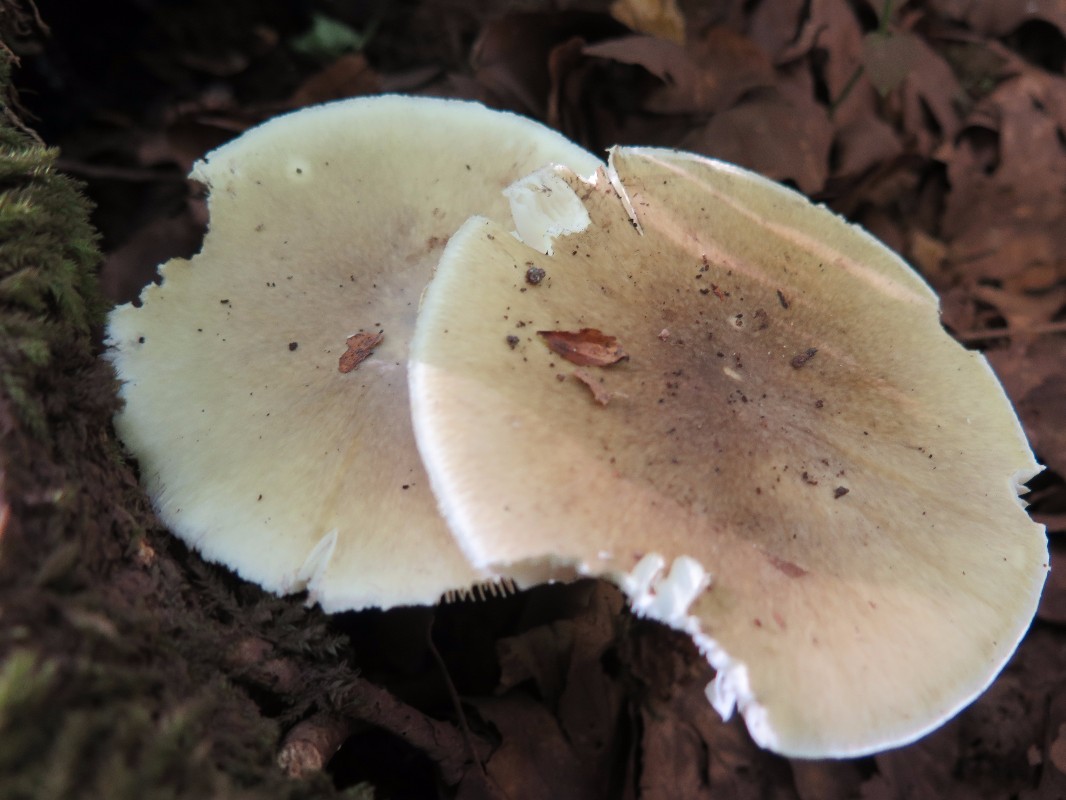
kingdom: Fungi
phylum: Basidiomycota
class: Agaricomycetes
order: Agaricales
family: Amanitaceae
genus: Amanita
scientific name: Amanita phalloides
